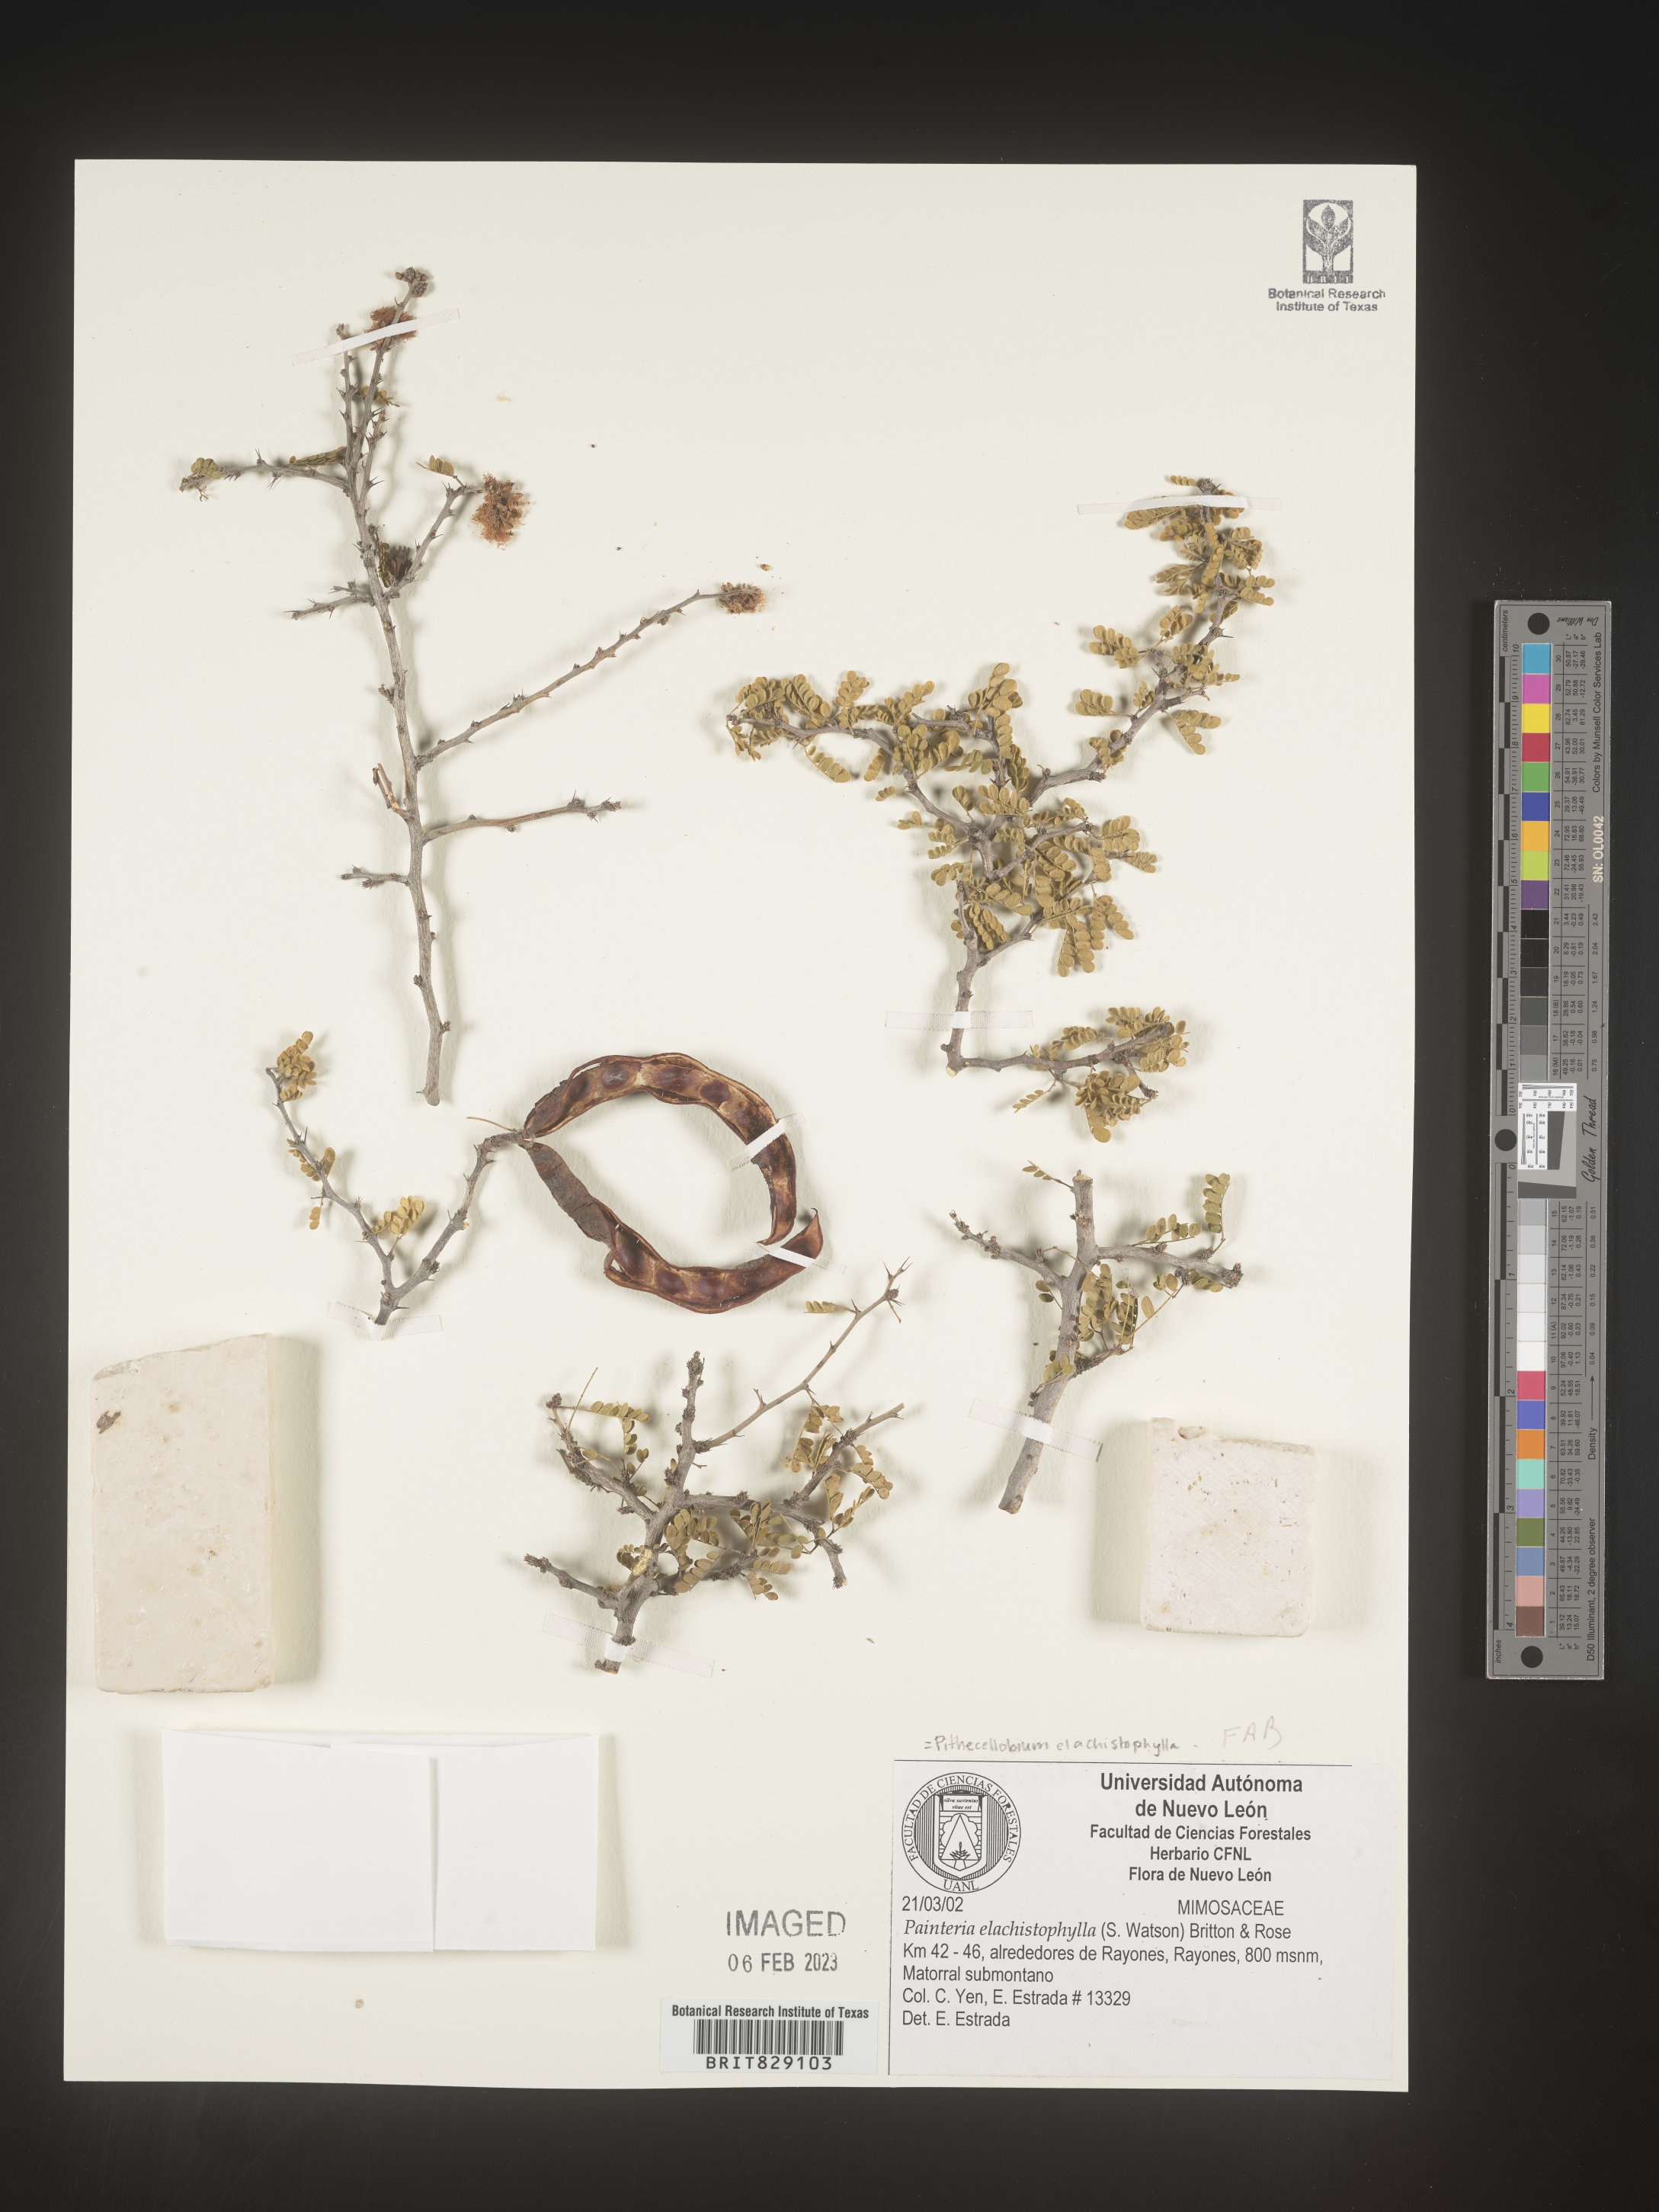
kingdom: Plantae
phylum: Tracheophyta
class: Magnoliopsida
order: Fabales
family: Fabaceae
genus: Pithecellobium
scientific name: Pithecellobium
